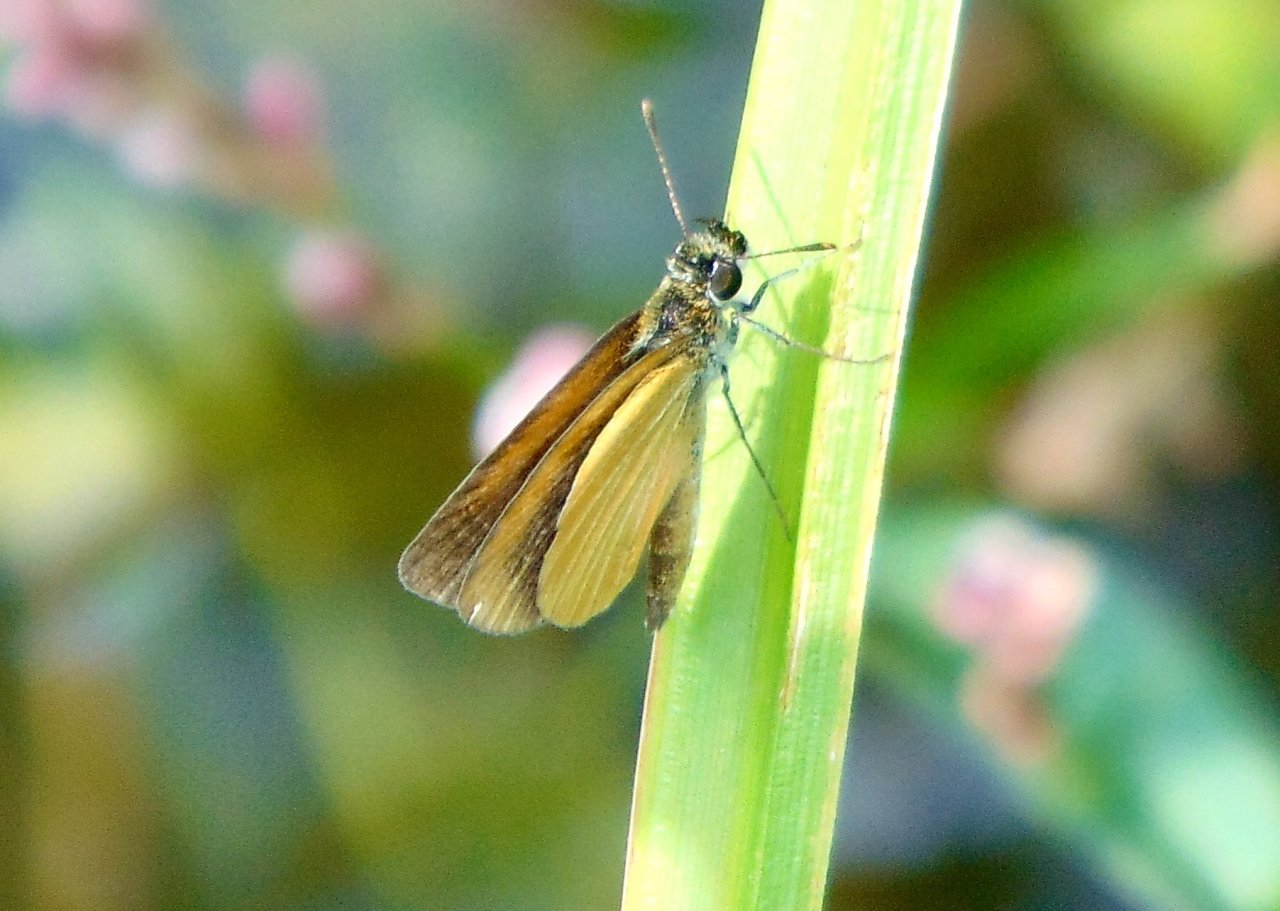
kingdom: Animalia
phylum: Arthropoda
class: Insecta
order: Lepidoptera
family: Hesperiidae
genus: Ancyloxypha
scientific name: Ancyloxypha numitor
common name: Least Skipper
